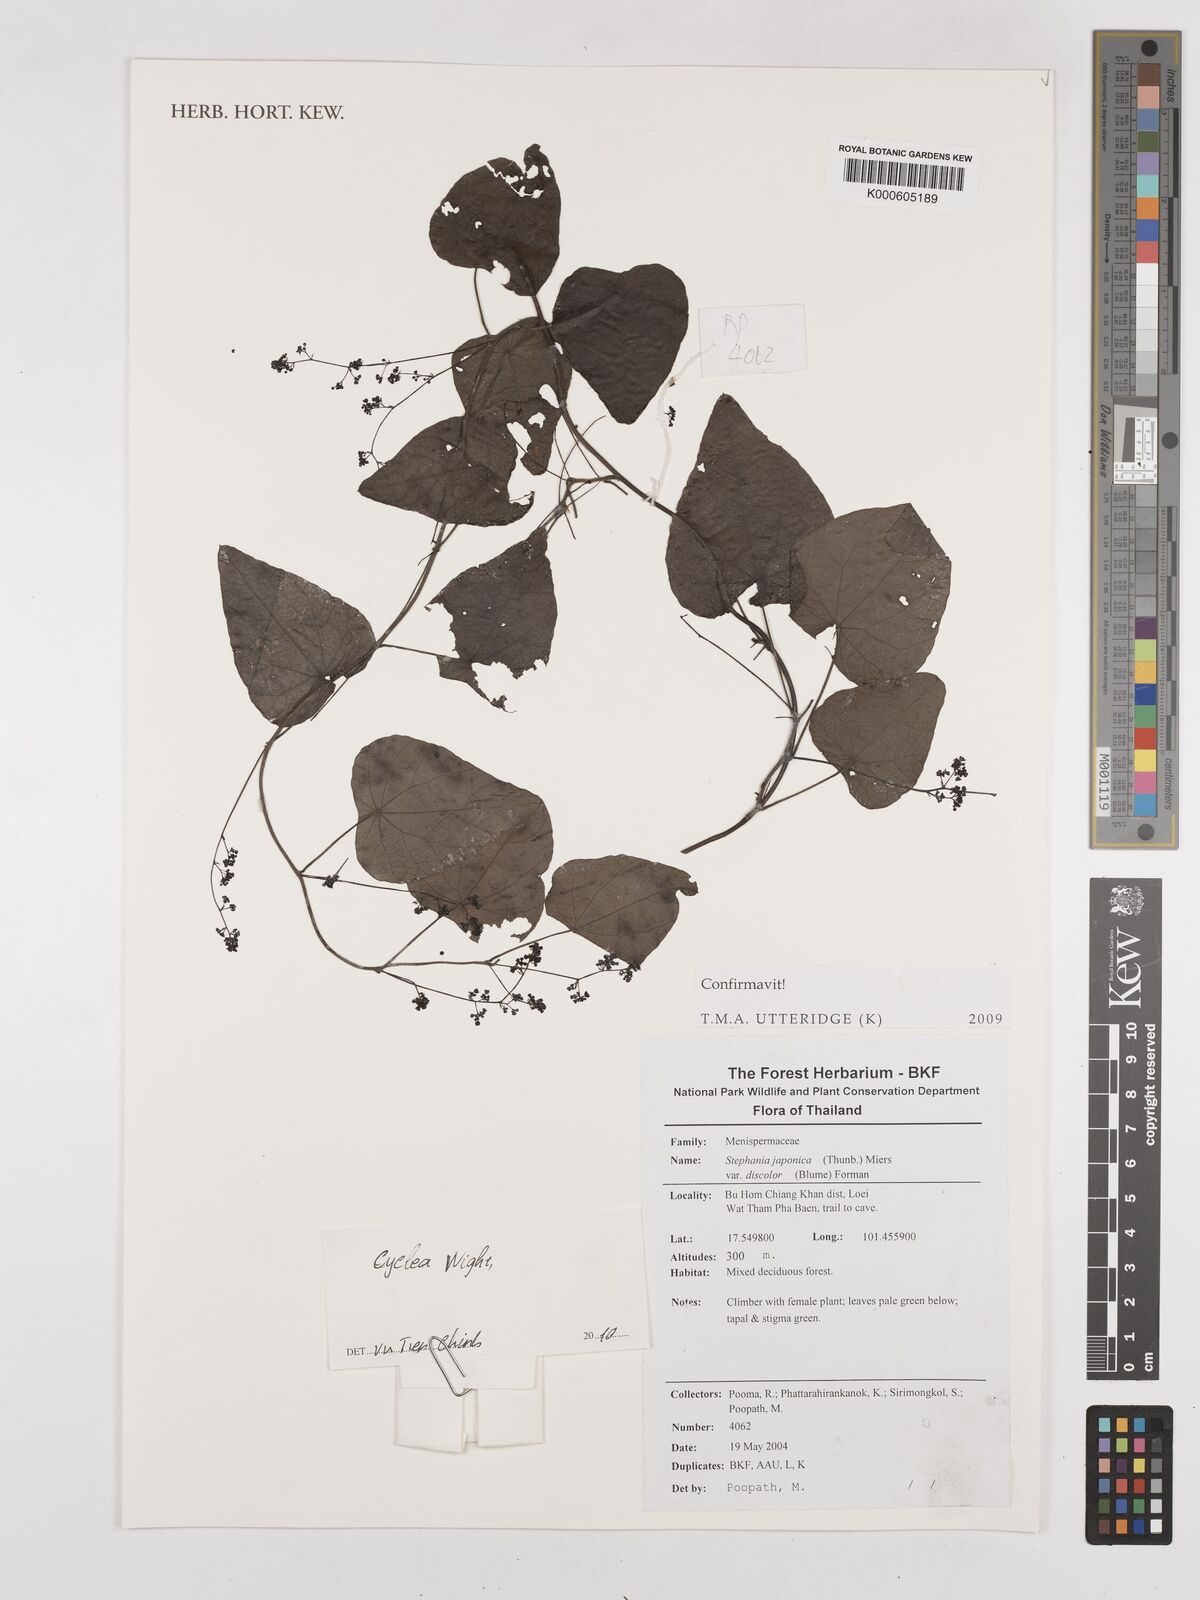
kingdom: Plantae
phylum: Tracheophyta
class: Magnoliopsida
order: Ranunculales
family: Menispermaceae
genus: Stephania
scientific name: Stephania japonica
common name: Snake vine
